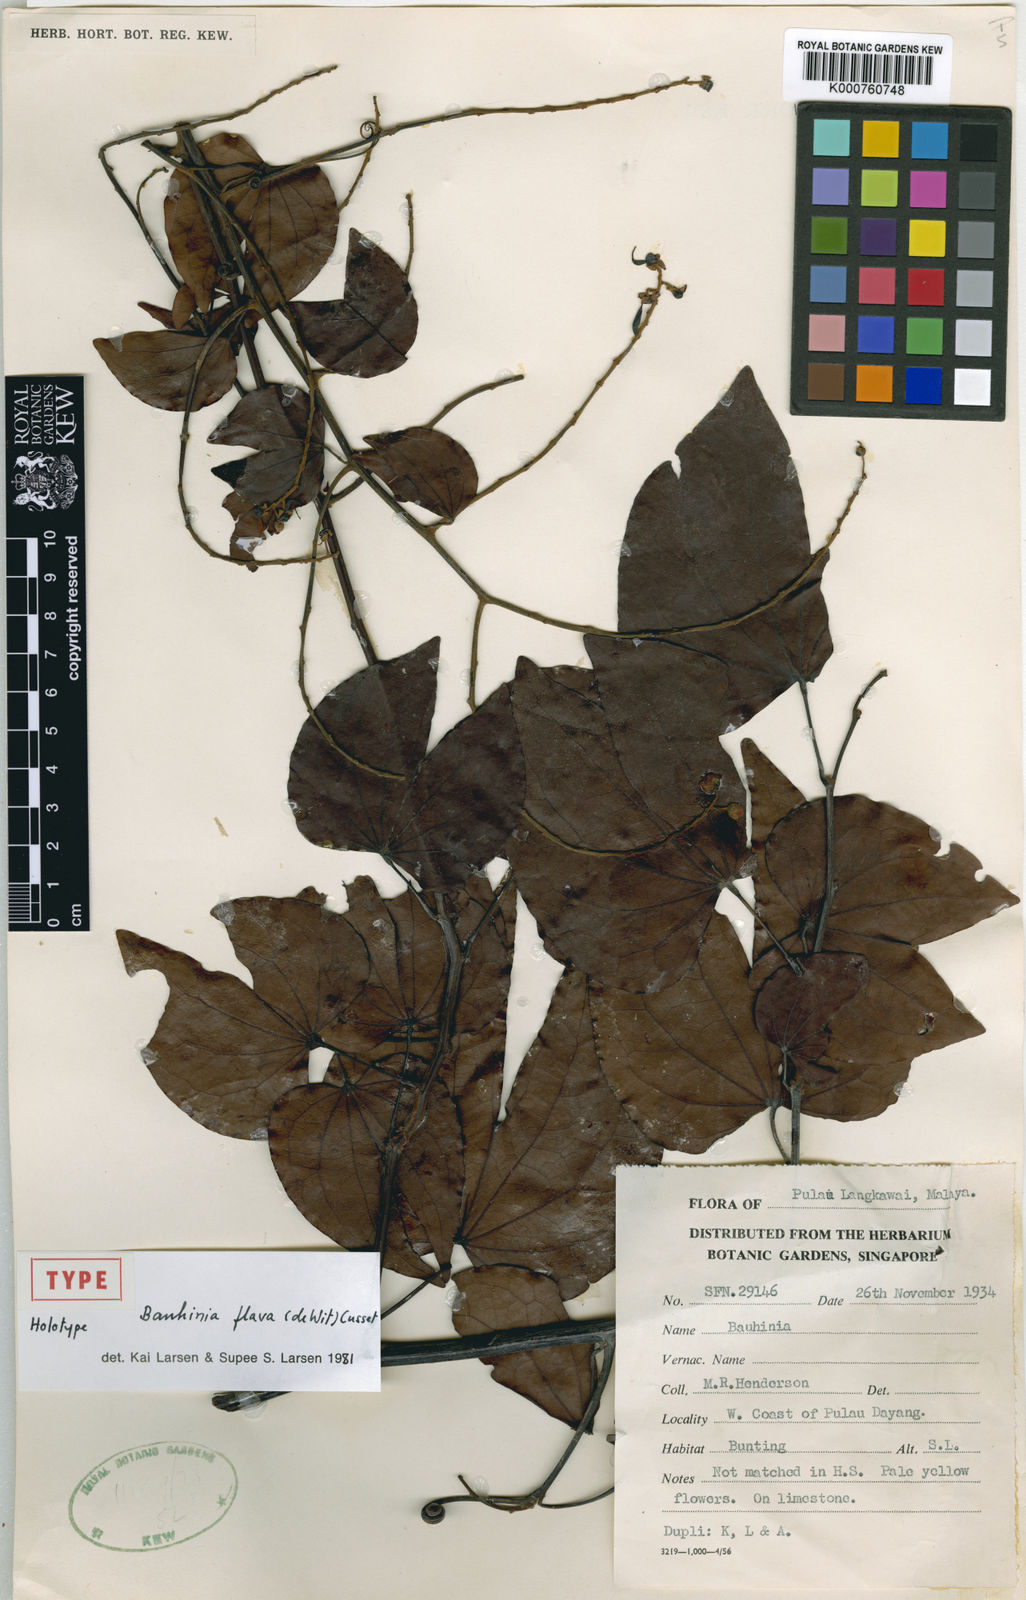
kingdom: Plantae
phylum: Tracheophyta
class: Magnoliopsida
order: Fabales
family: Fabaceae
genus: Phanera
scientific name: Phanera flava
